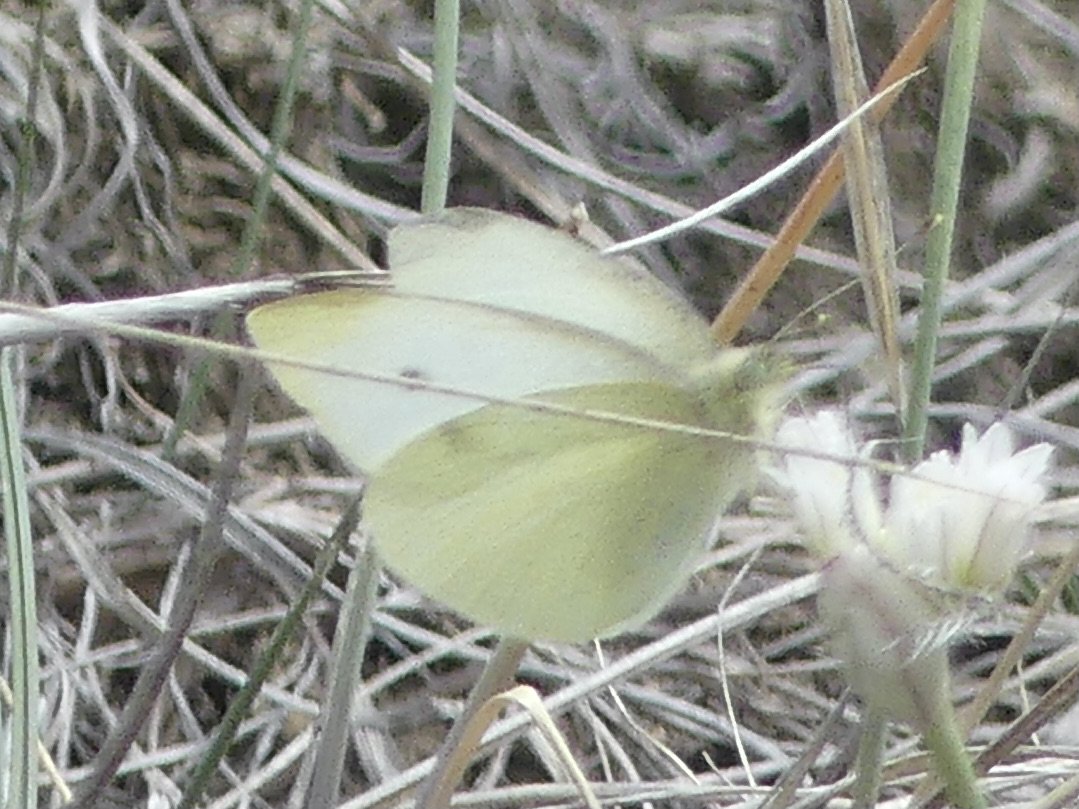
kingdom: Animalia
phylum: Arthropoda
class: Insecta
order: Lepidoptera
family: Pieridae
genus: Pieris
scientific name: Pieris rapae
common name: Cabbage White
